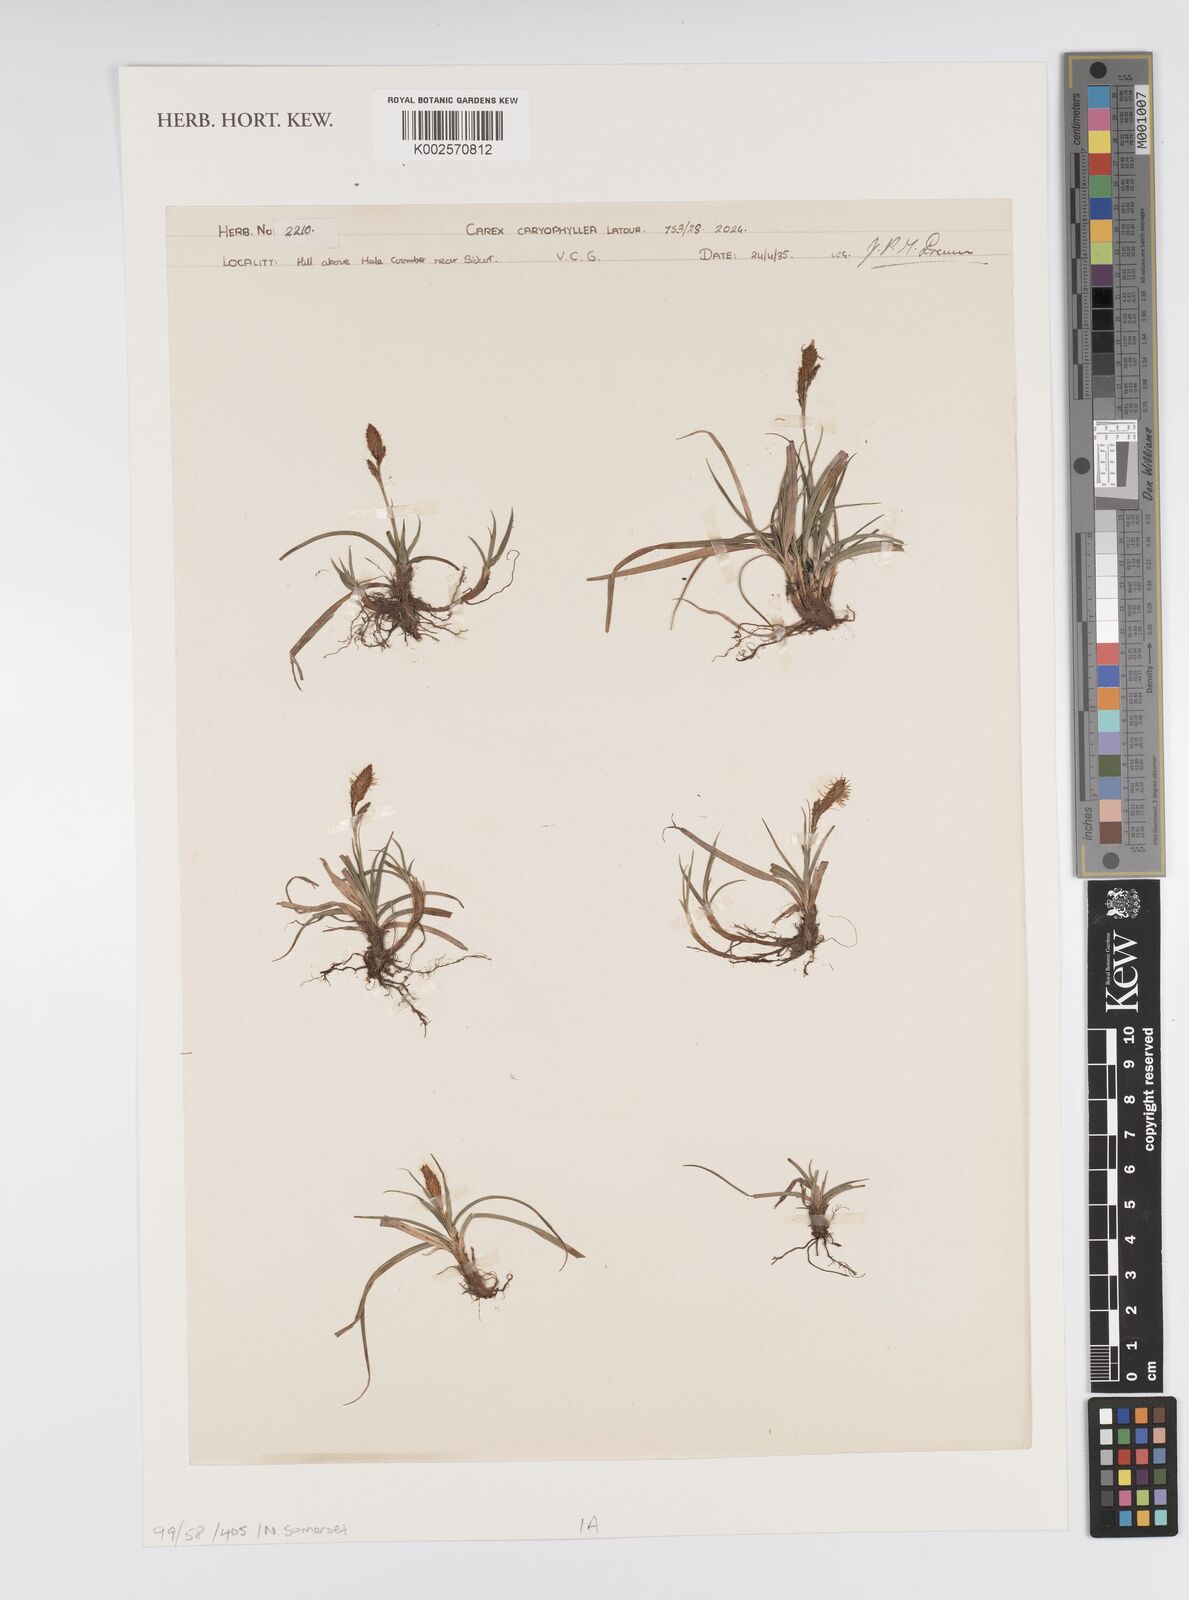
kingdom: Plantae
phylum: Tracheophyta
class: Liliopsida
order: Poales
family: Cyperaceae
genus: Carex
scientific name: Carex montana
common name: Soft-leaved sedge
